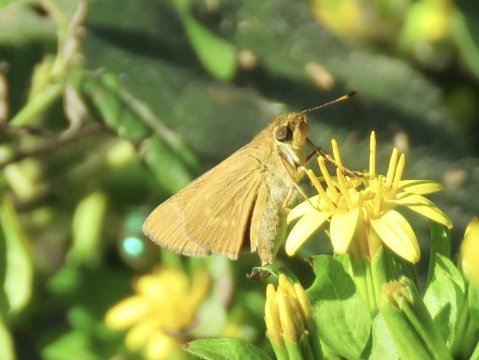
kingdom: Animalia
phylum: Arthropoda
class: Insecta
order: Lepidoptera
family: Hesperiidae
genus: Mellana
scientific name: Mellana eulogius
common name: Common Mellana
